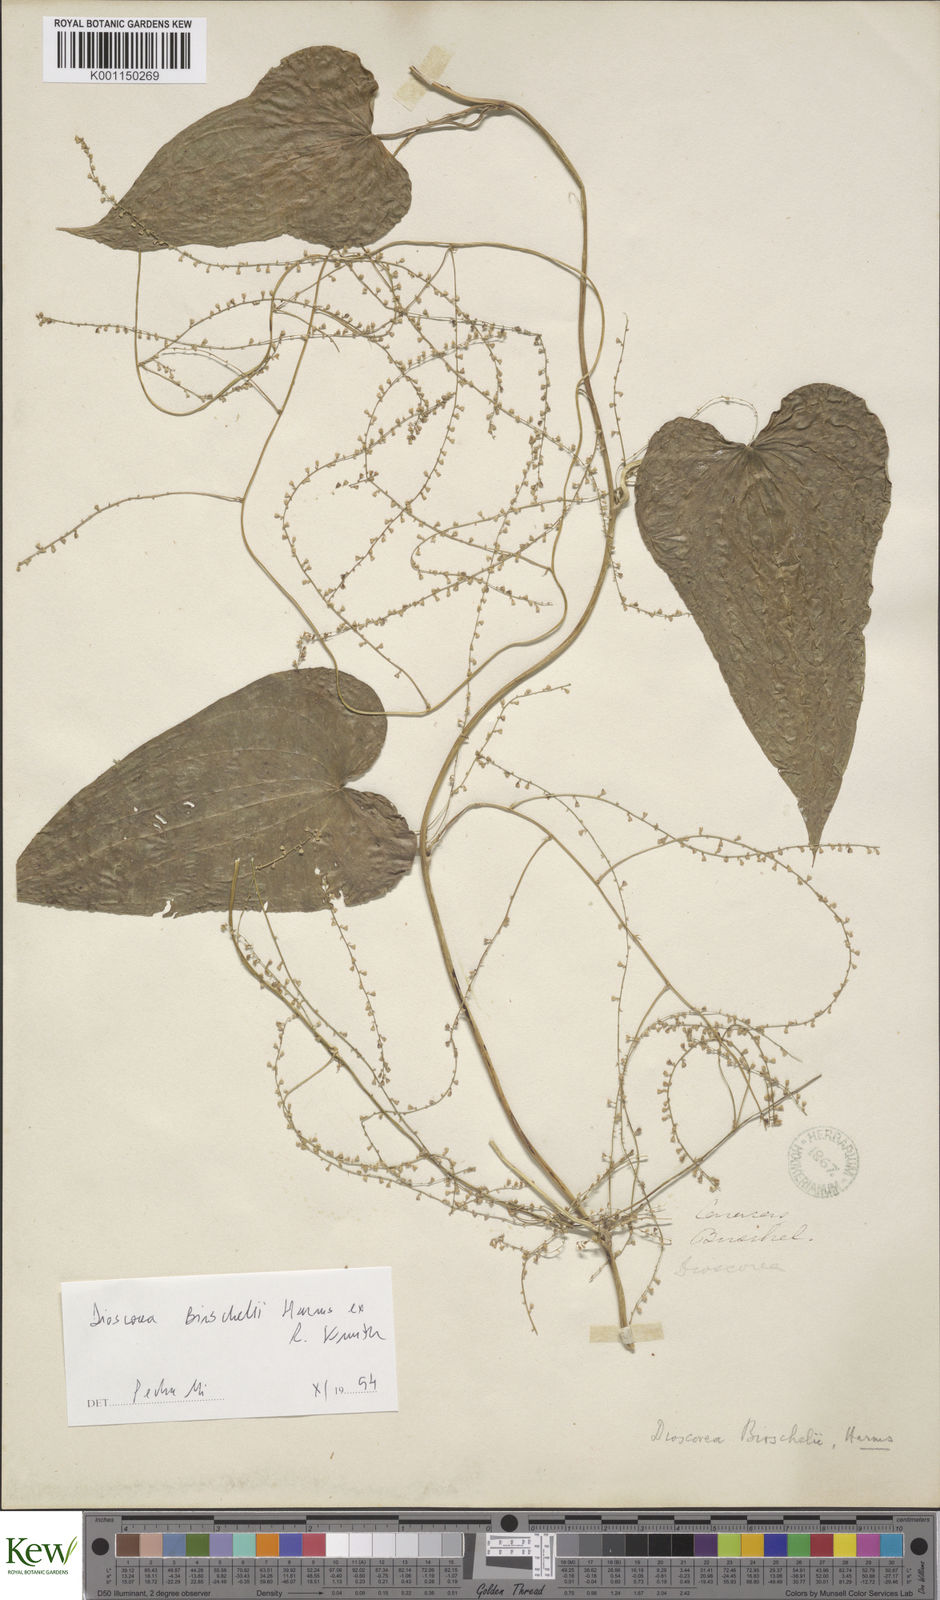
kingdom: Plantae
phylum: Tracheophyta
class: Liliopsida
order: Dioscoreales
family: Dioscoreaceae
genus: Dioscorea
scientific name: Dioscorea burchellii
